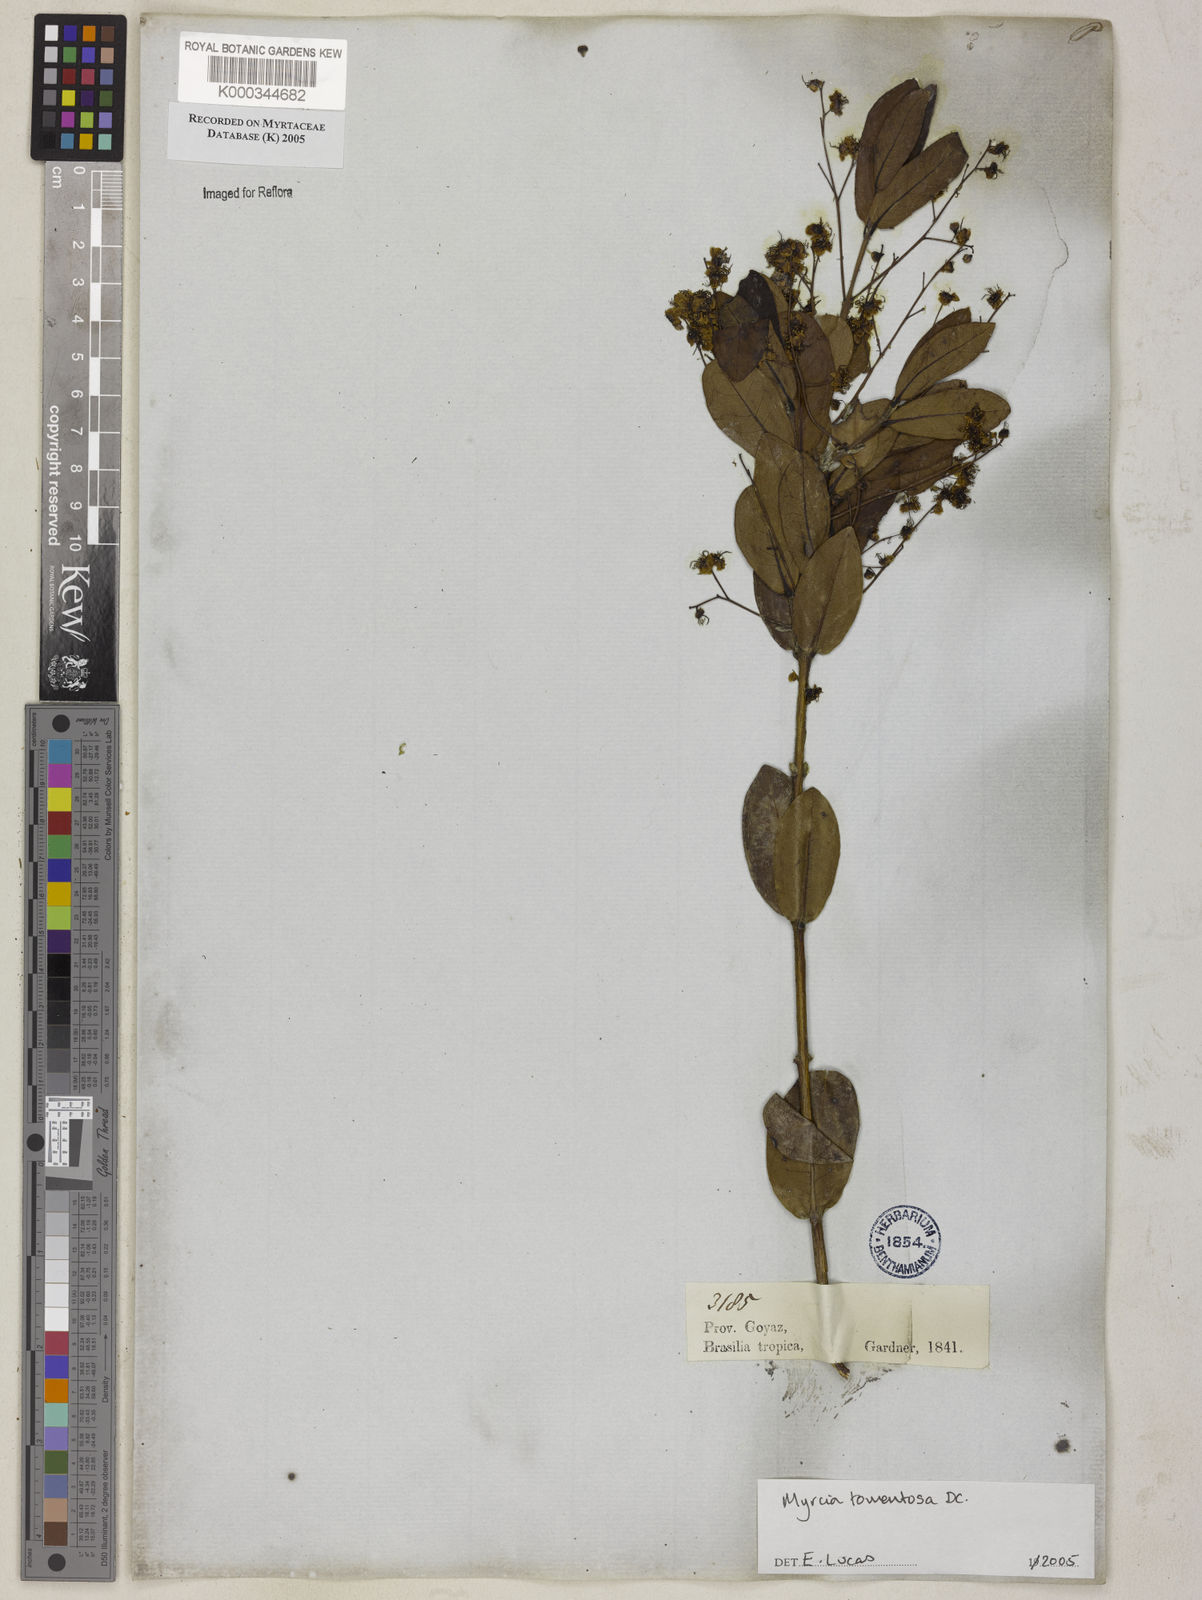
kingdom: Plantae
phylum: Tracheophyta
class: Magnoliopsida
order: Myrtales
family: Myrtaceae
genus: Myrcia
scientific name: Myrcia tomentosa
